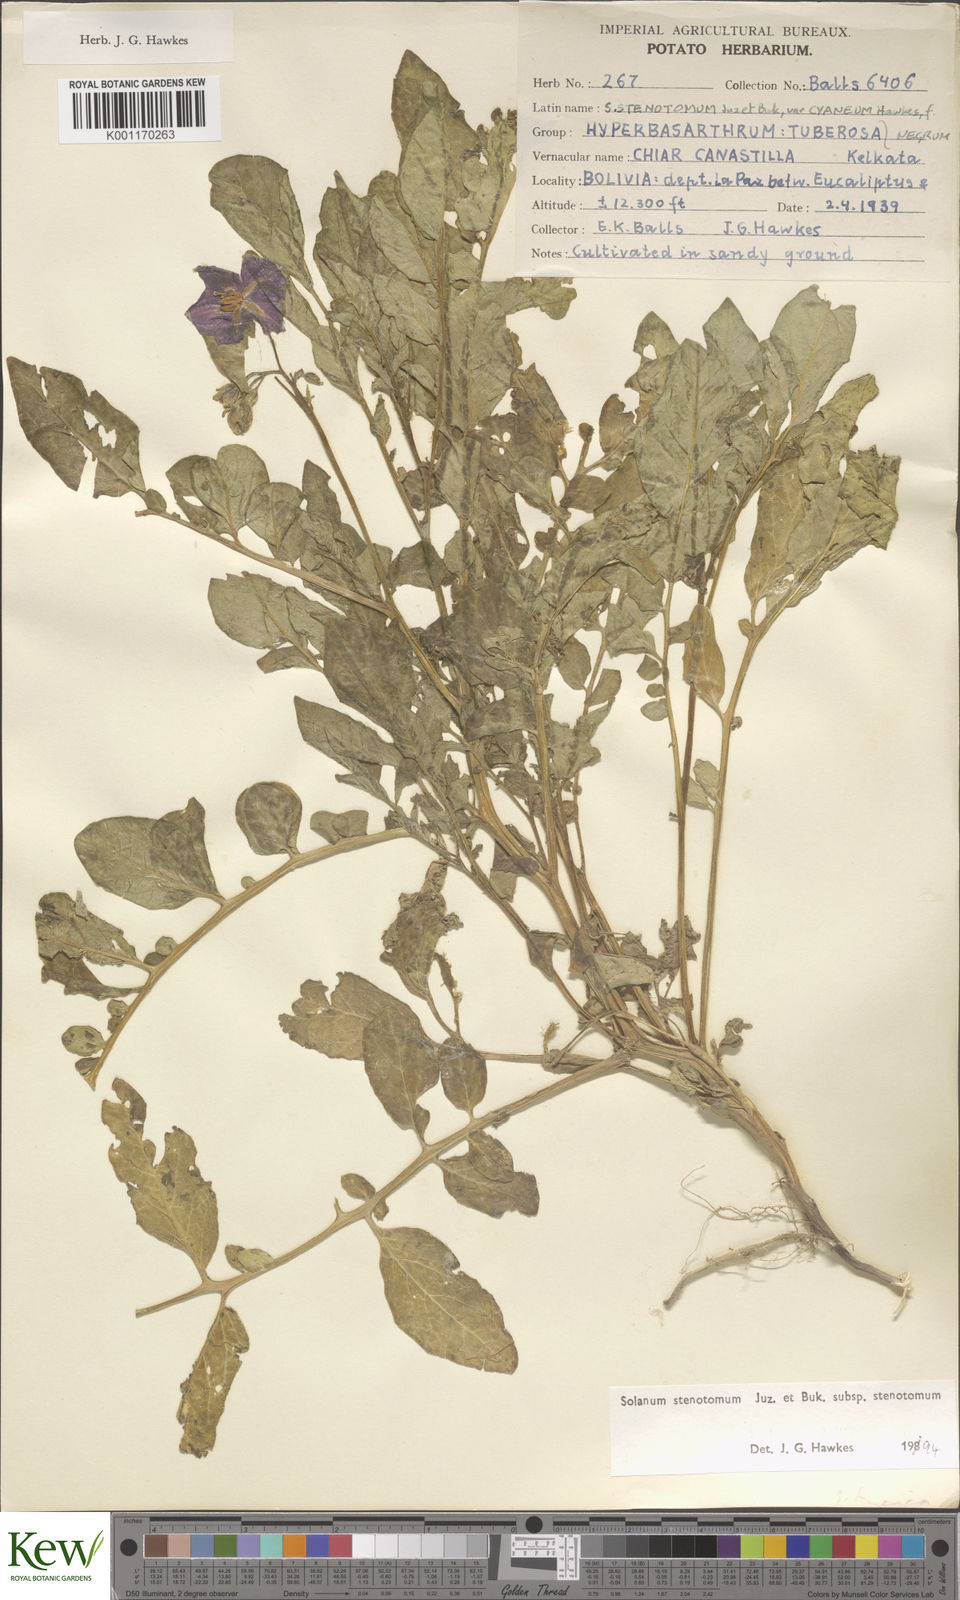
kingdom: Plantae
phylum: Tracheophyta
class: Magnoliopsida
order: Solanales
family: Solanaceae
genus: Solanum
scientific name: Solanum tuberosum
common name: Potato
